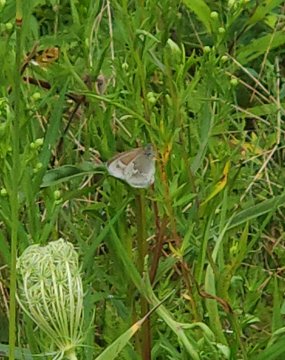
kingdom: Animalia
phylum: Arthropoda
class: Insecta
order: Lepidoptera
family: Nymphalidae
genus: Coenonympha
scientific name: Coenonympha tullia
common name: Large Heath
